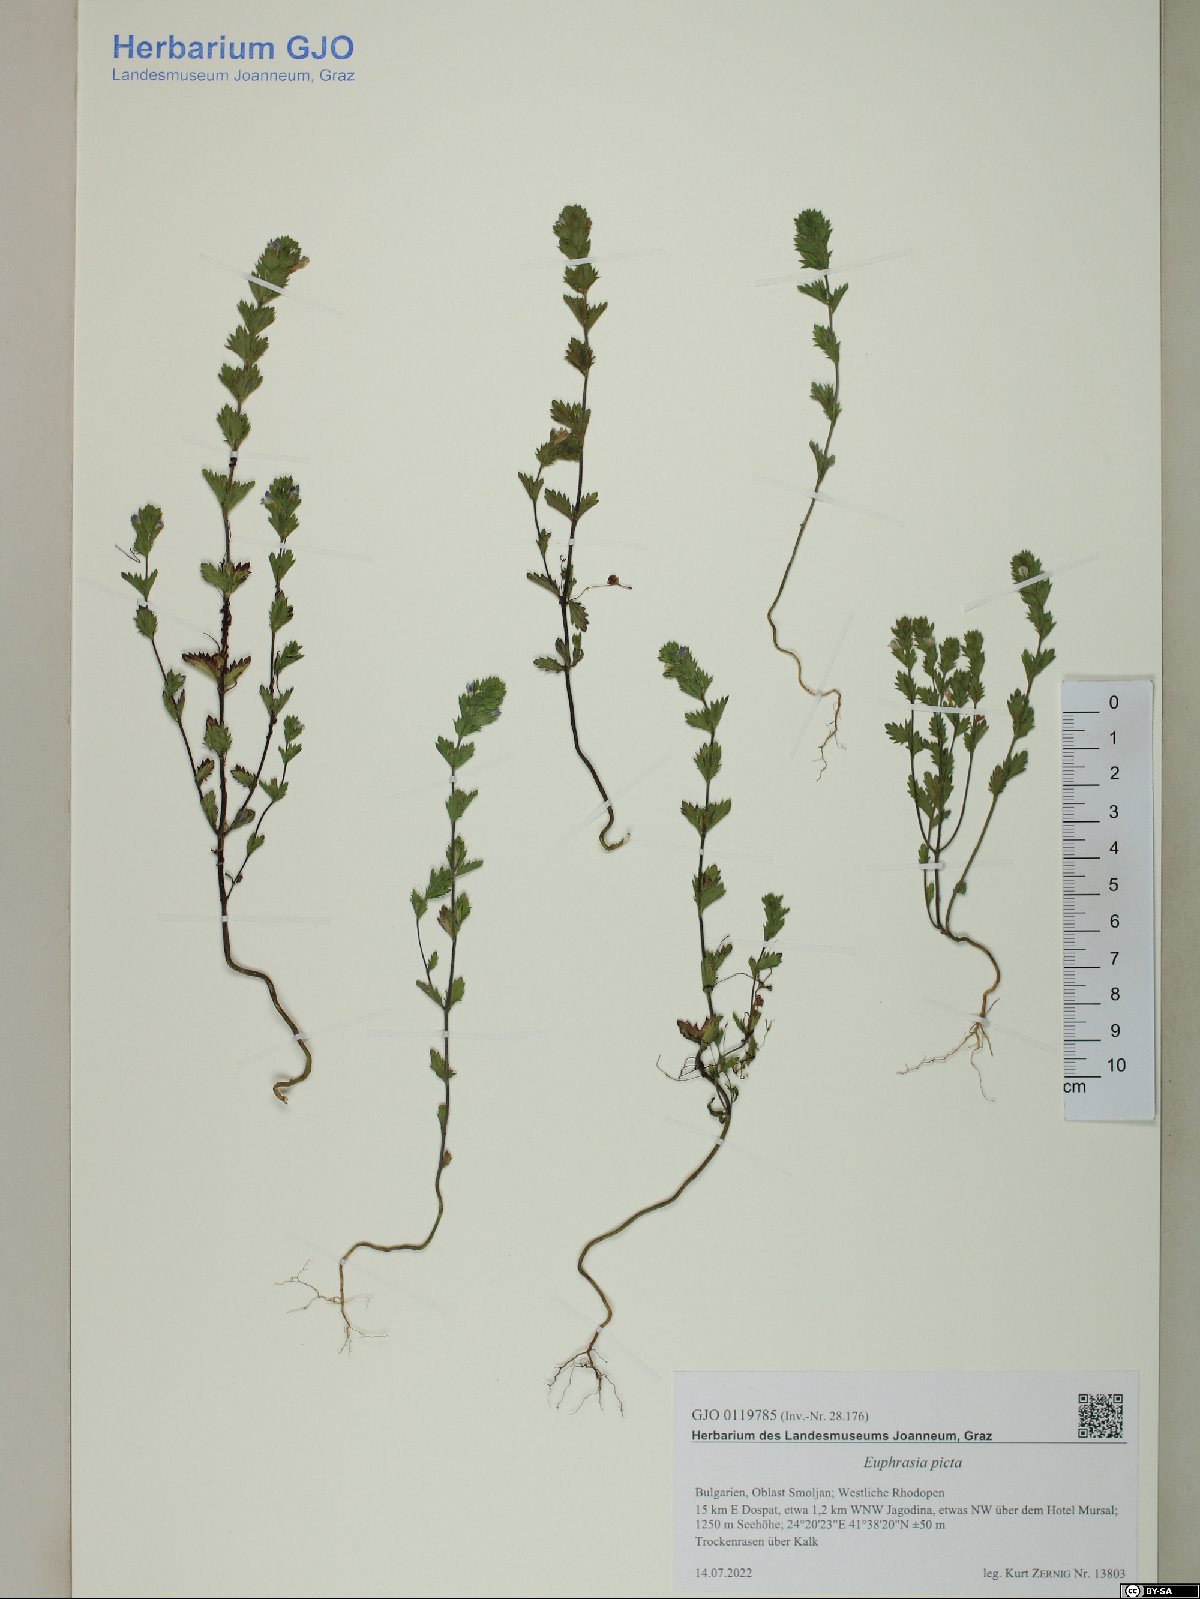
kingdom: Plantae
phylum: Tracheophyta
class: Magnoliopsida
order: Lamiales
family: Orobanchaceae
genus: Euphrasia
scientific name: Euphrasia picta
